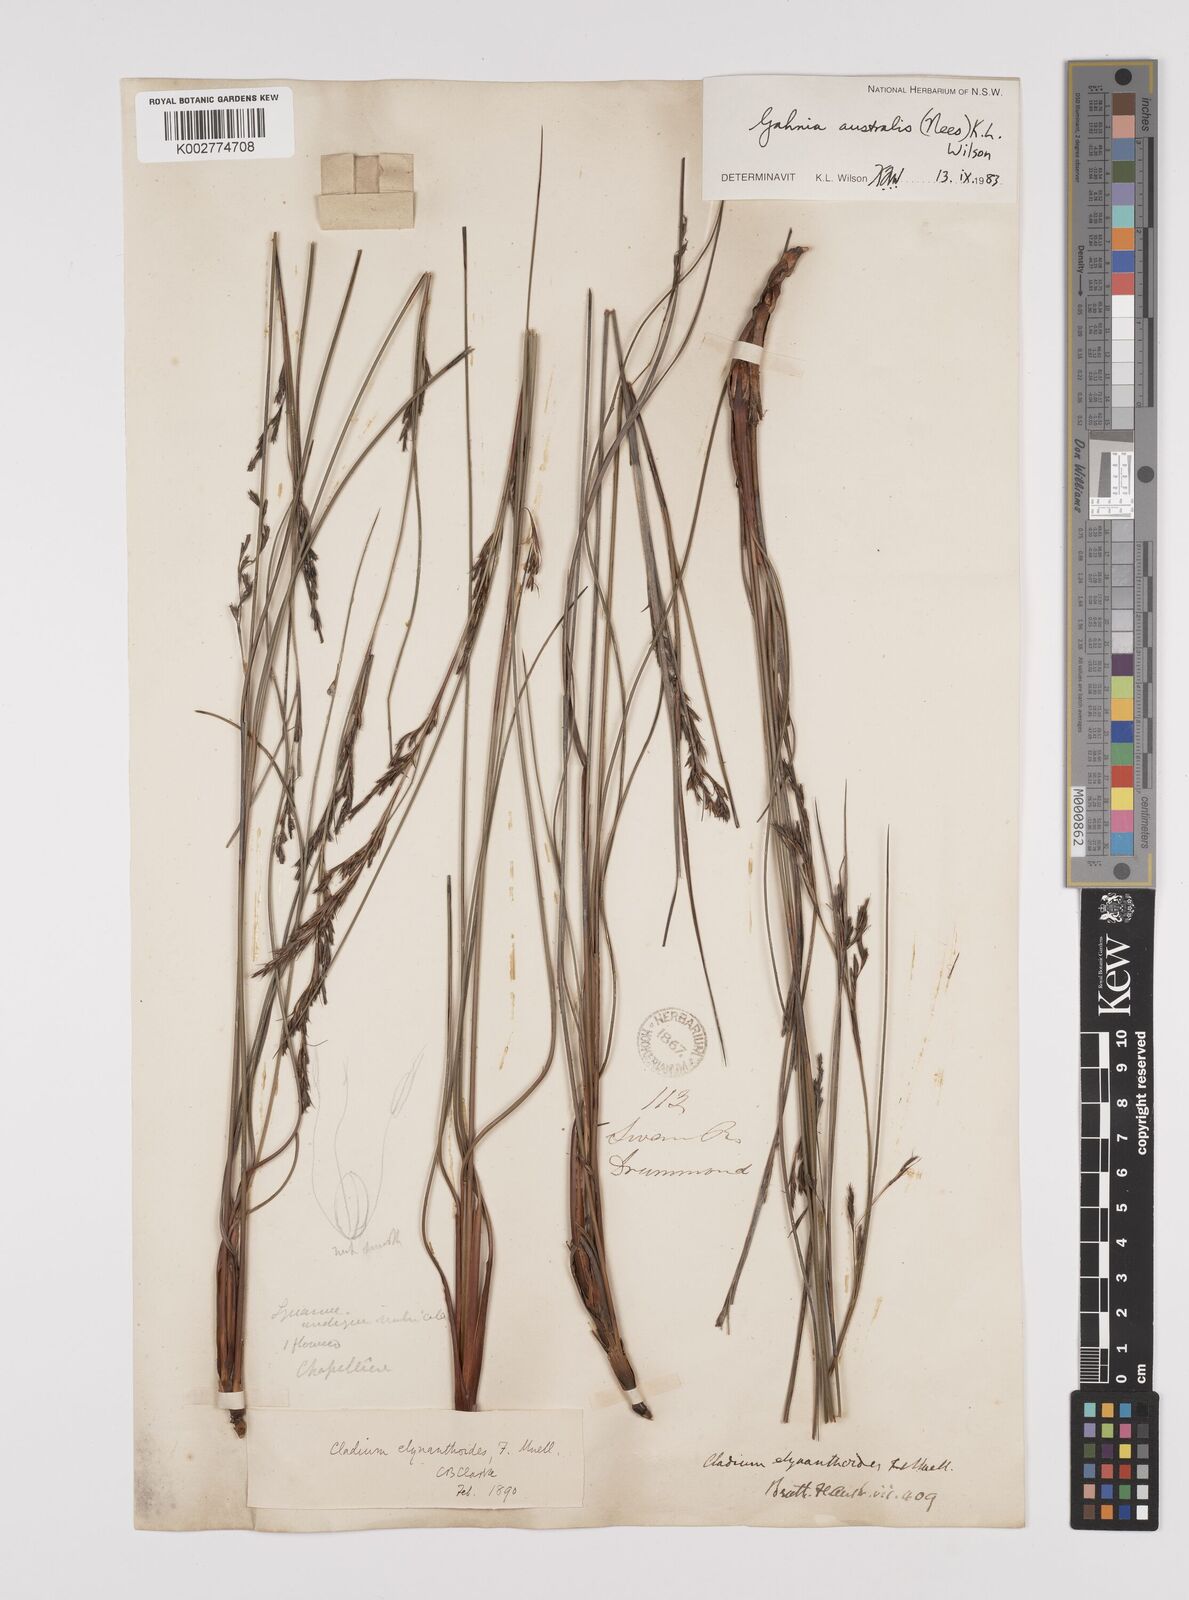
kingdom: Plantae
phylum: Tracheophyta
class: Liliopsida
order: Poales
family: Cyperaceae
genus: Gahnia
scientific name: Gahnia australis
